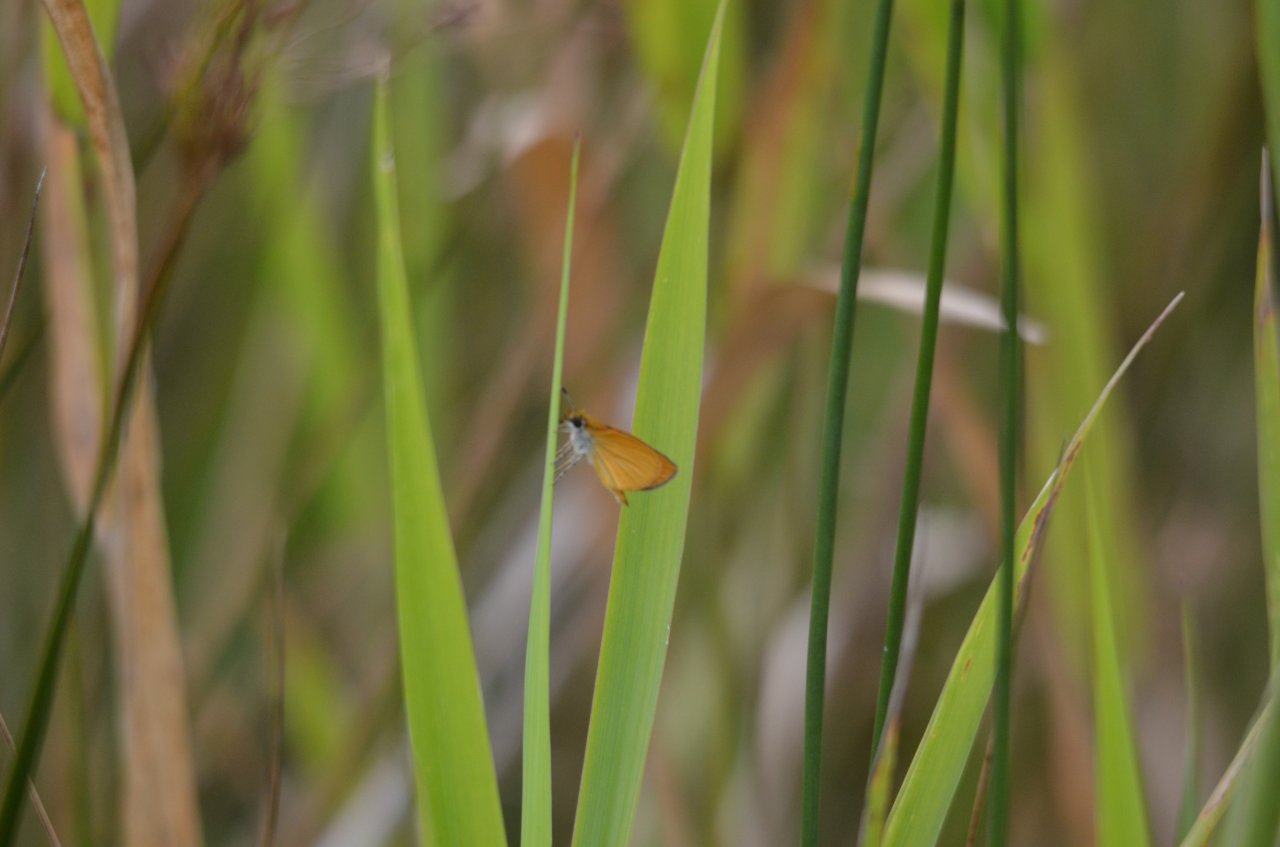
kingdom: Animalia
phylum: Arthropoda
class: Insecta
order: Lepidoptera
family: Hesperiidae
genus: Ancyloxypha
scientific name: Ancyloxypha numitor
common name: Least Skipper
